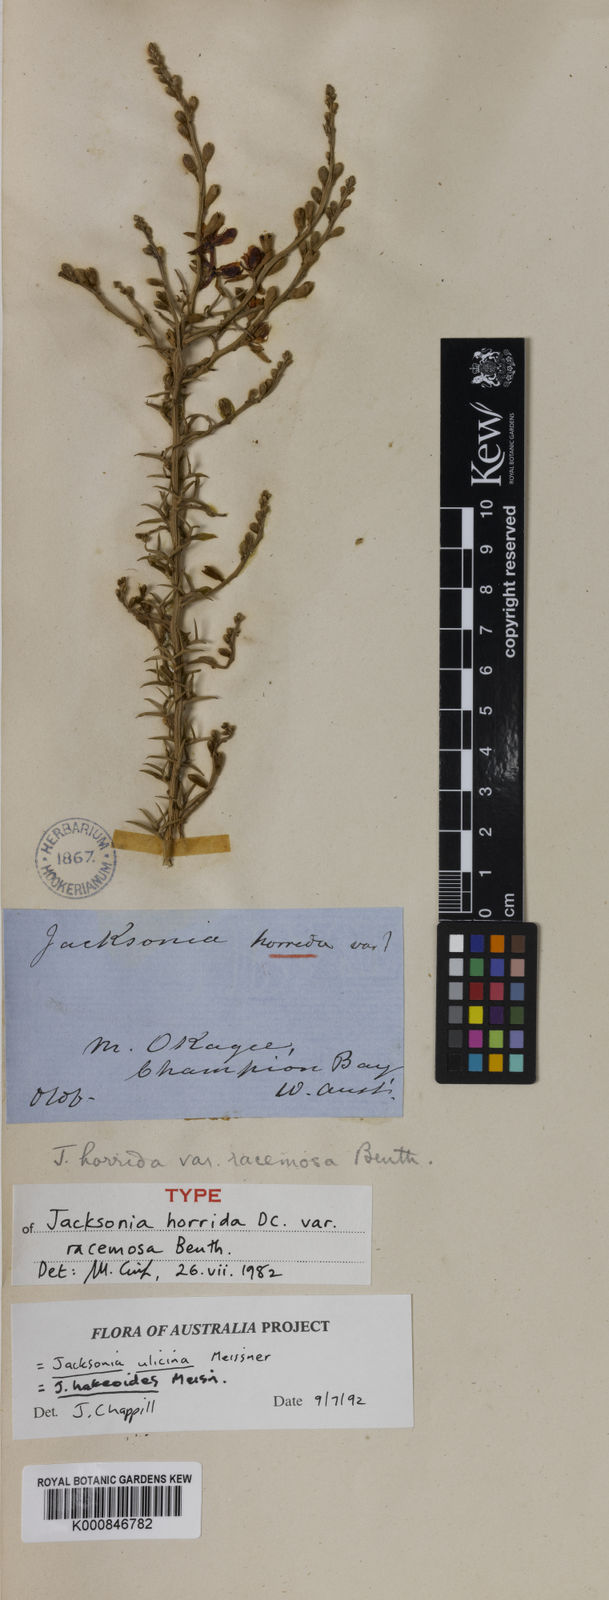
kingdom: Plantae
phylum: Tracheophyta
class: Magnoliopsida
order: Fabales
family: Fabaceae
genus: Jacksonia
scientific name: Jacksonia horrida
